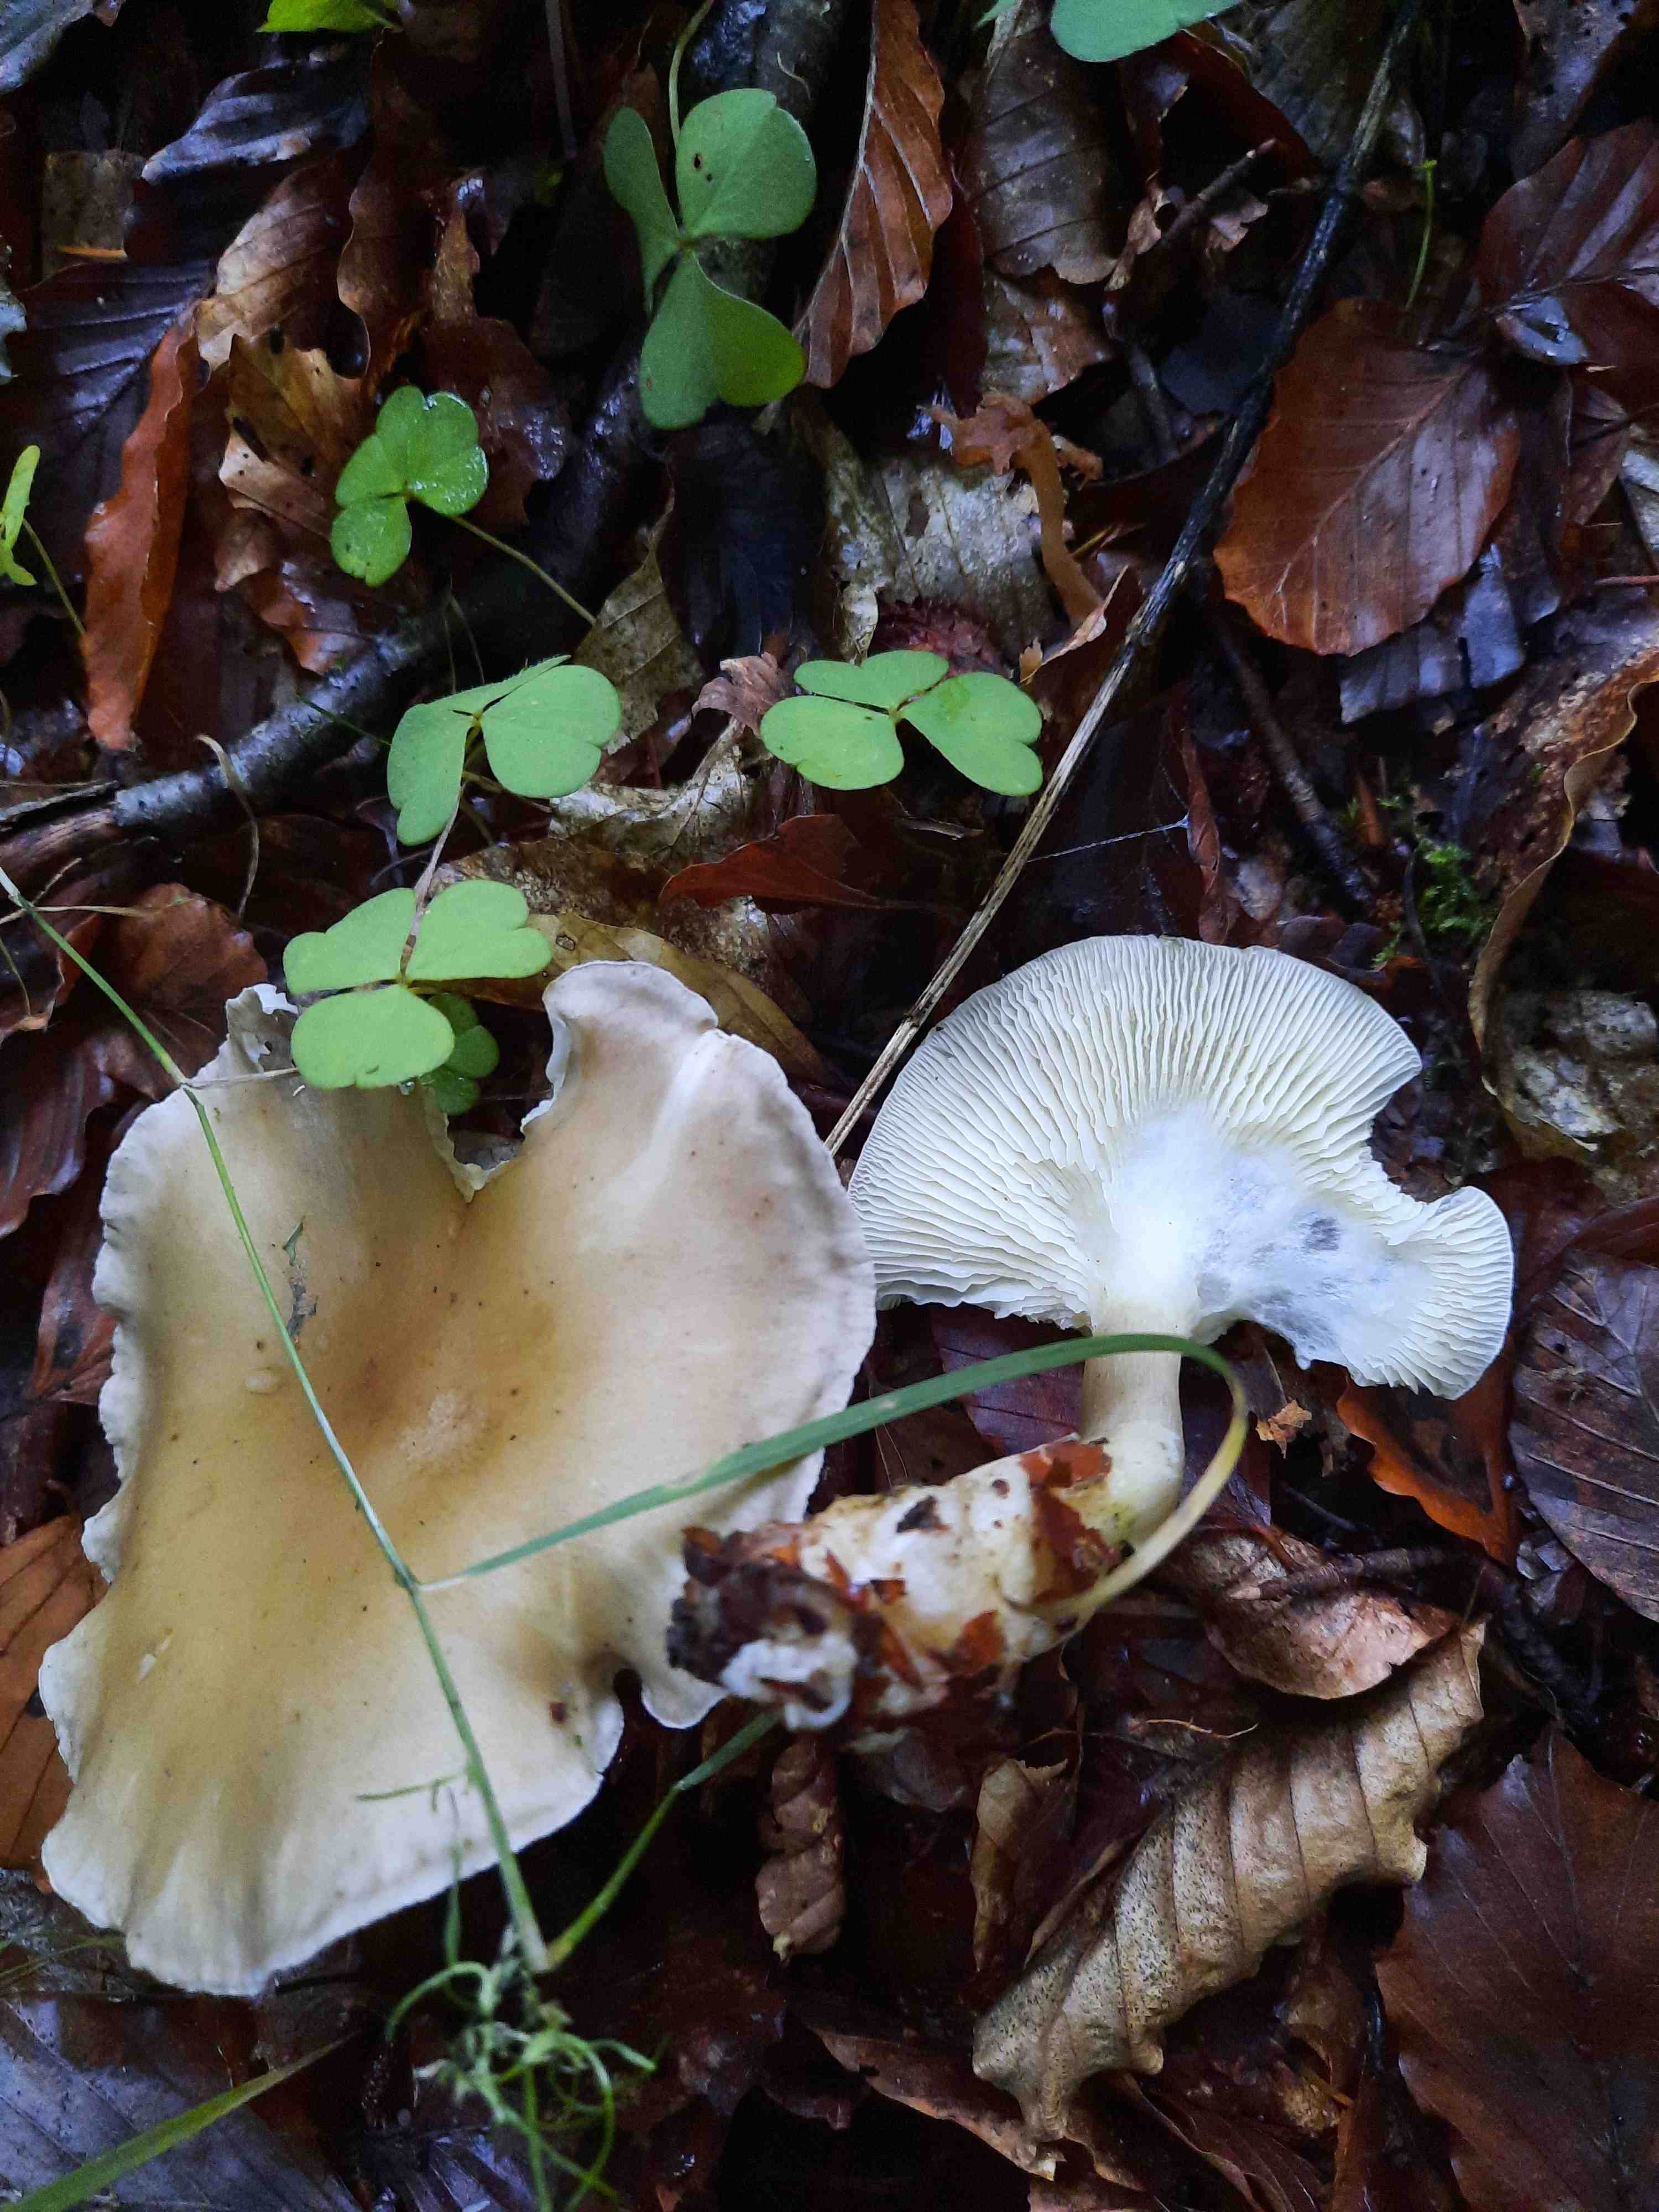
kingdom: Fungi
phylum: Basidiomycota
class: Agaricomycetes
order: Agaricales
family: Hygrophoraceae
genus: Ampulloclitocybe
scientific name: Ampulloclitocybe clavipes
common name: køllefod
